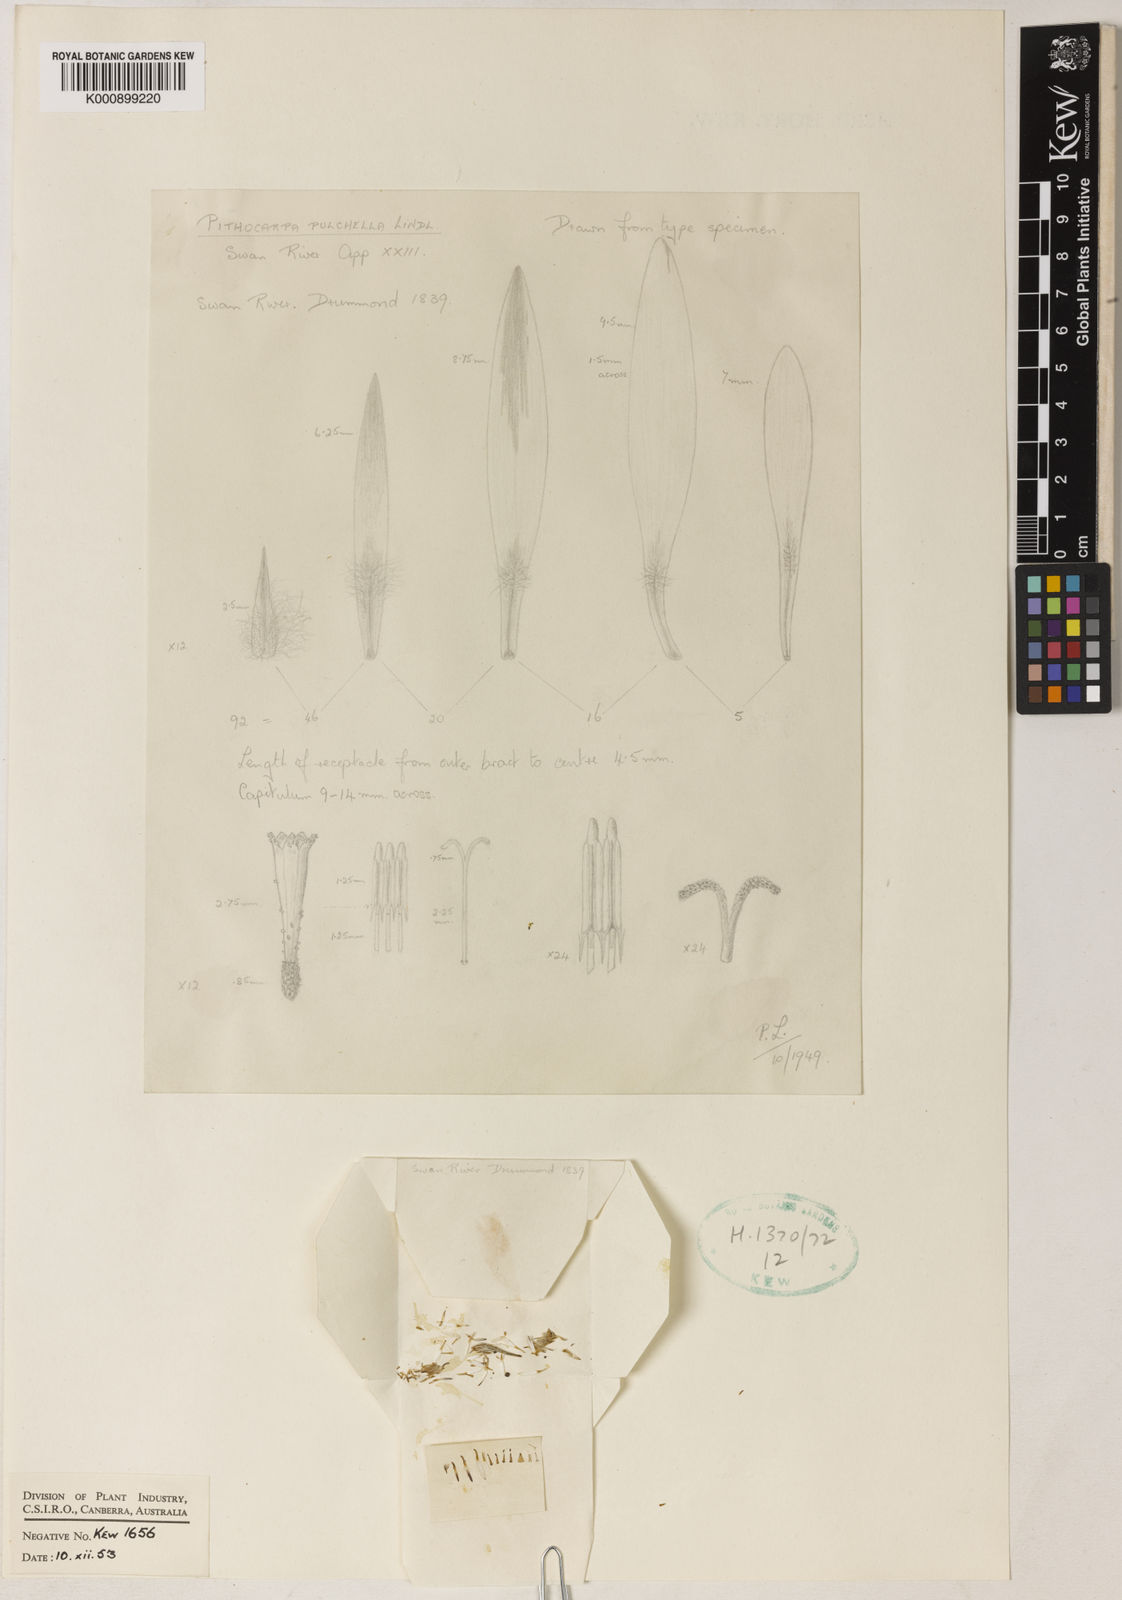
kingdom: Plantae
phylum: Tracheophyta
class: Magnoliopsida
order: Asterales
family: Asteraceae
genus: Pithocarpa
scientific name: Pithocarpa pulchella
